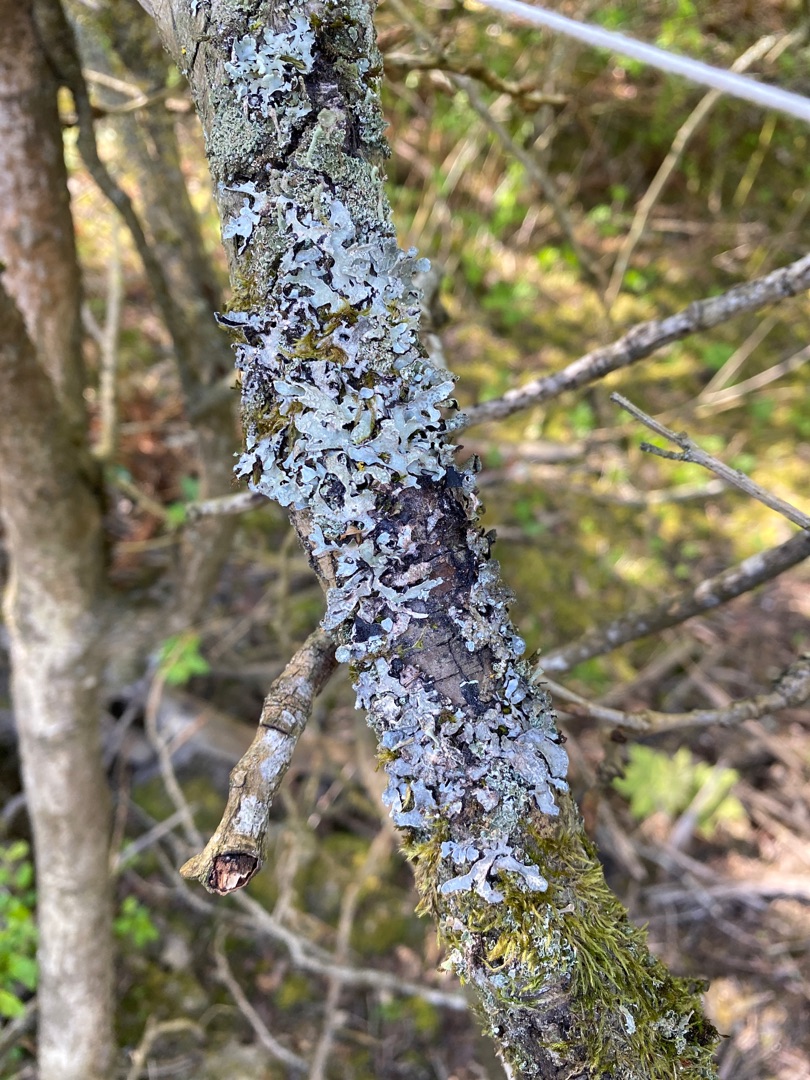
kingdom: Fungi
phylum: Ascomycota
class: Lecanoromycetes
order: Lecanorales
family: Parmeliaceae
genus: Parmelia
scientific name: Parmelia sulcata
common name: Rynket skållav
